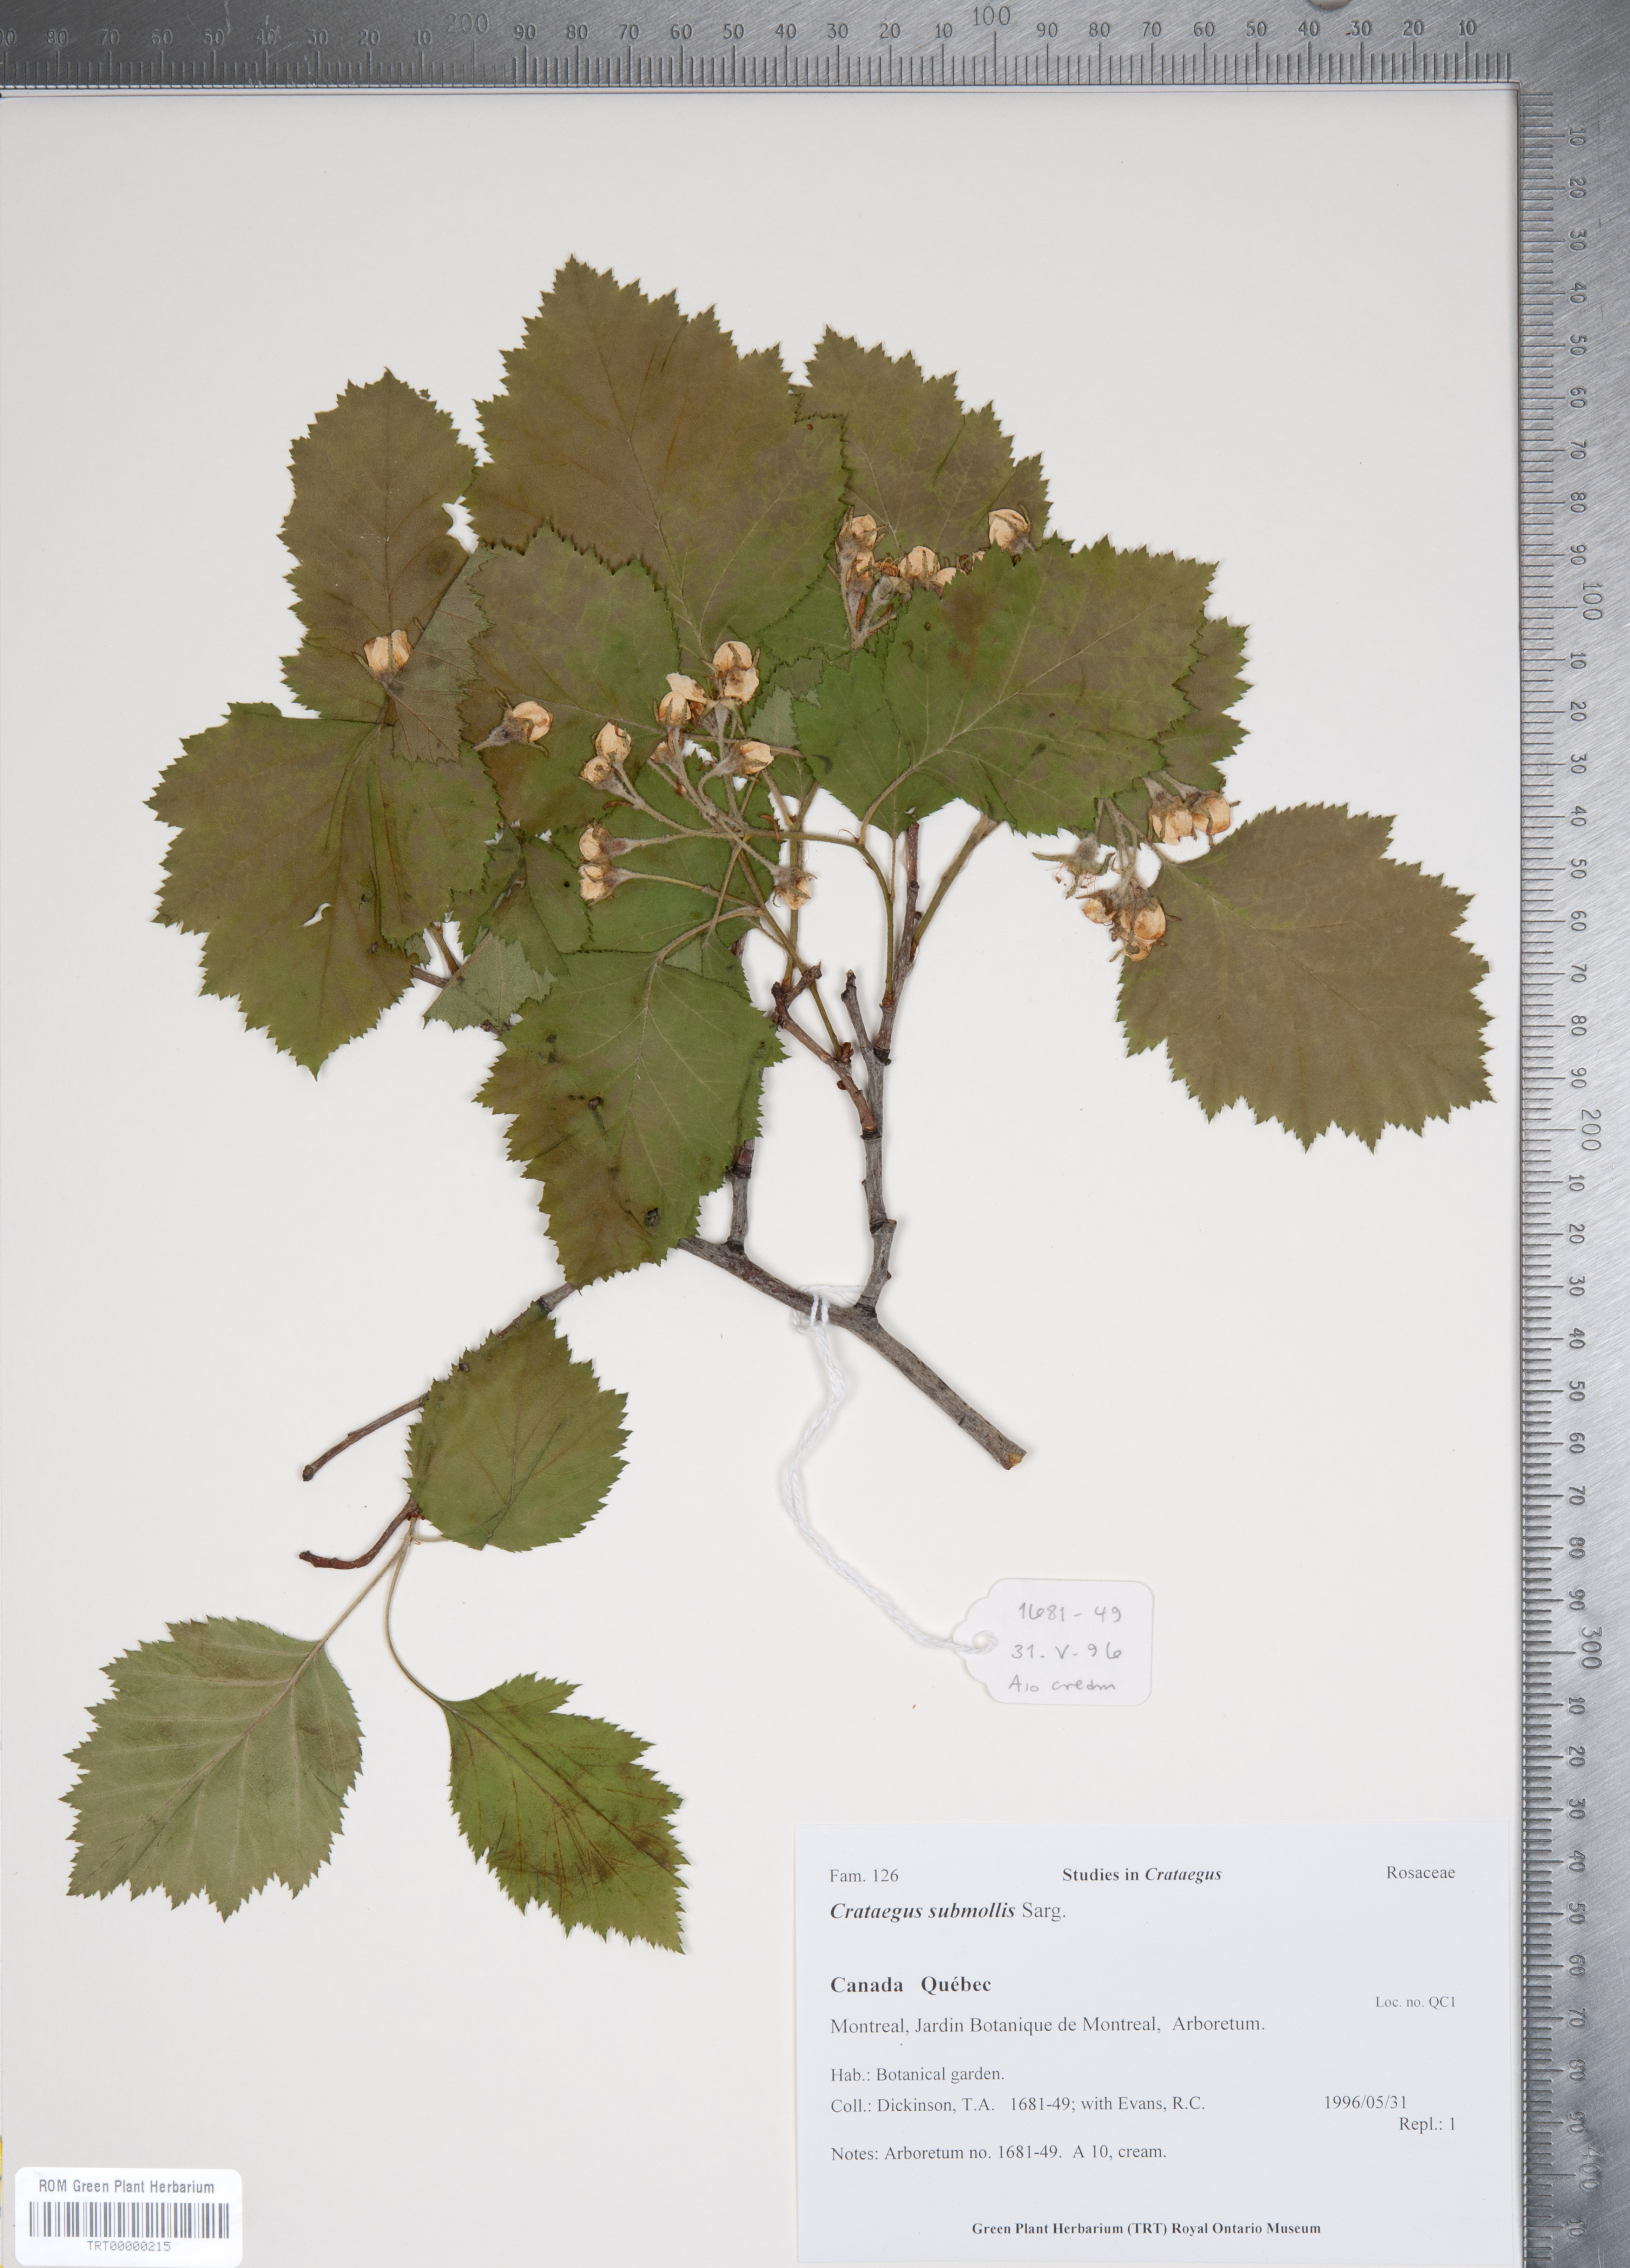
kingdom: Plantae
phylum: Tracheophyta
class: Magnoliopsida
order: Rosales
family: Rosaceae
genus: Crataegus
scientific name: Crataegus submollis
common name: Hairy cockspurthorn
